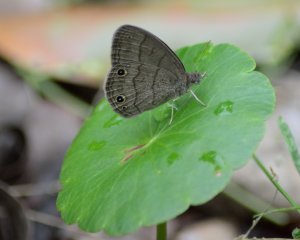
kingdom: Animalia
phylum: Arthropoda
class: Insecta
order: Lepidoptera
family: Nymphalidae
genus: Hermeuptychia
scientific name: Hermeuptychia hermes
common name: Carolina Satyr
